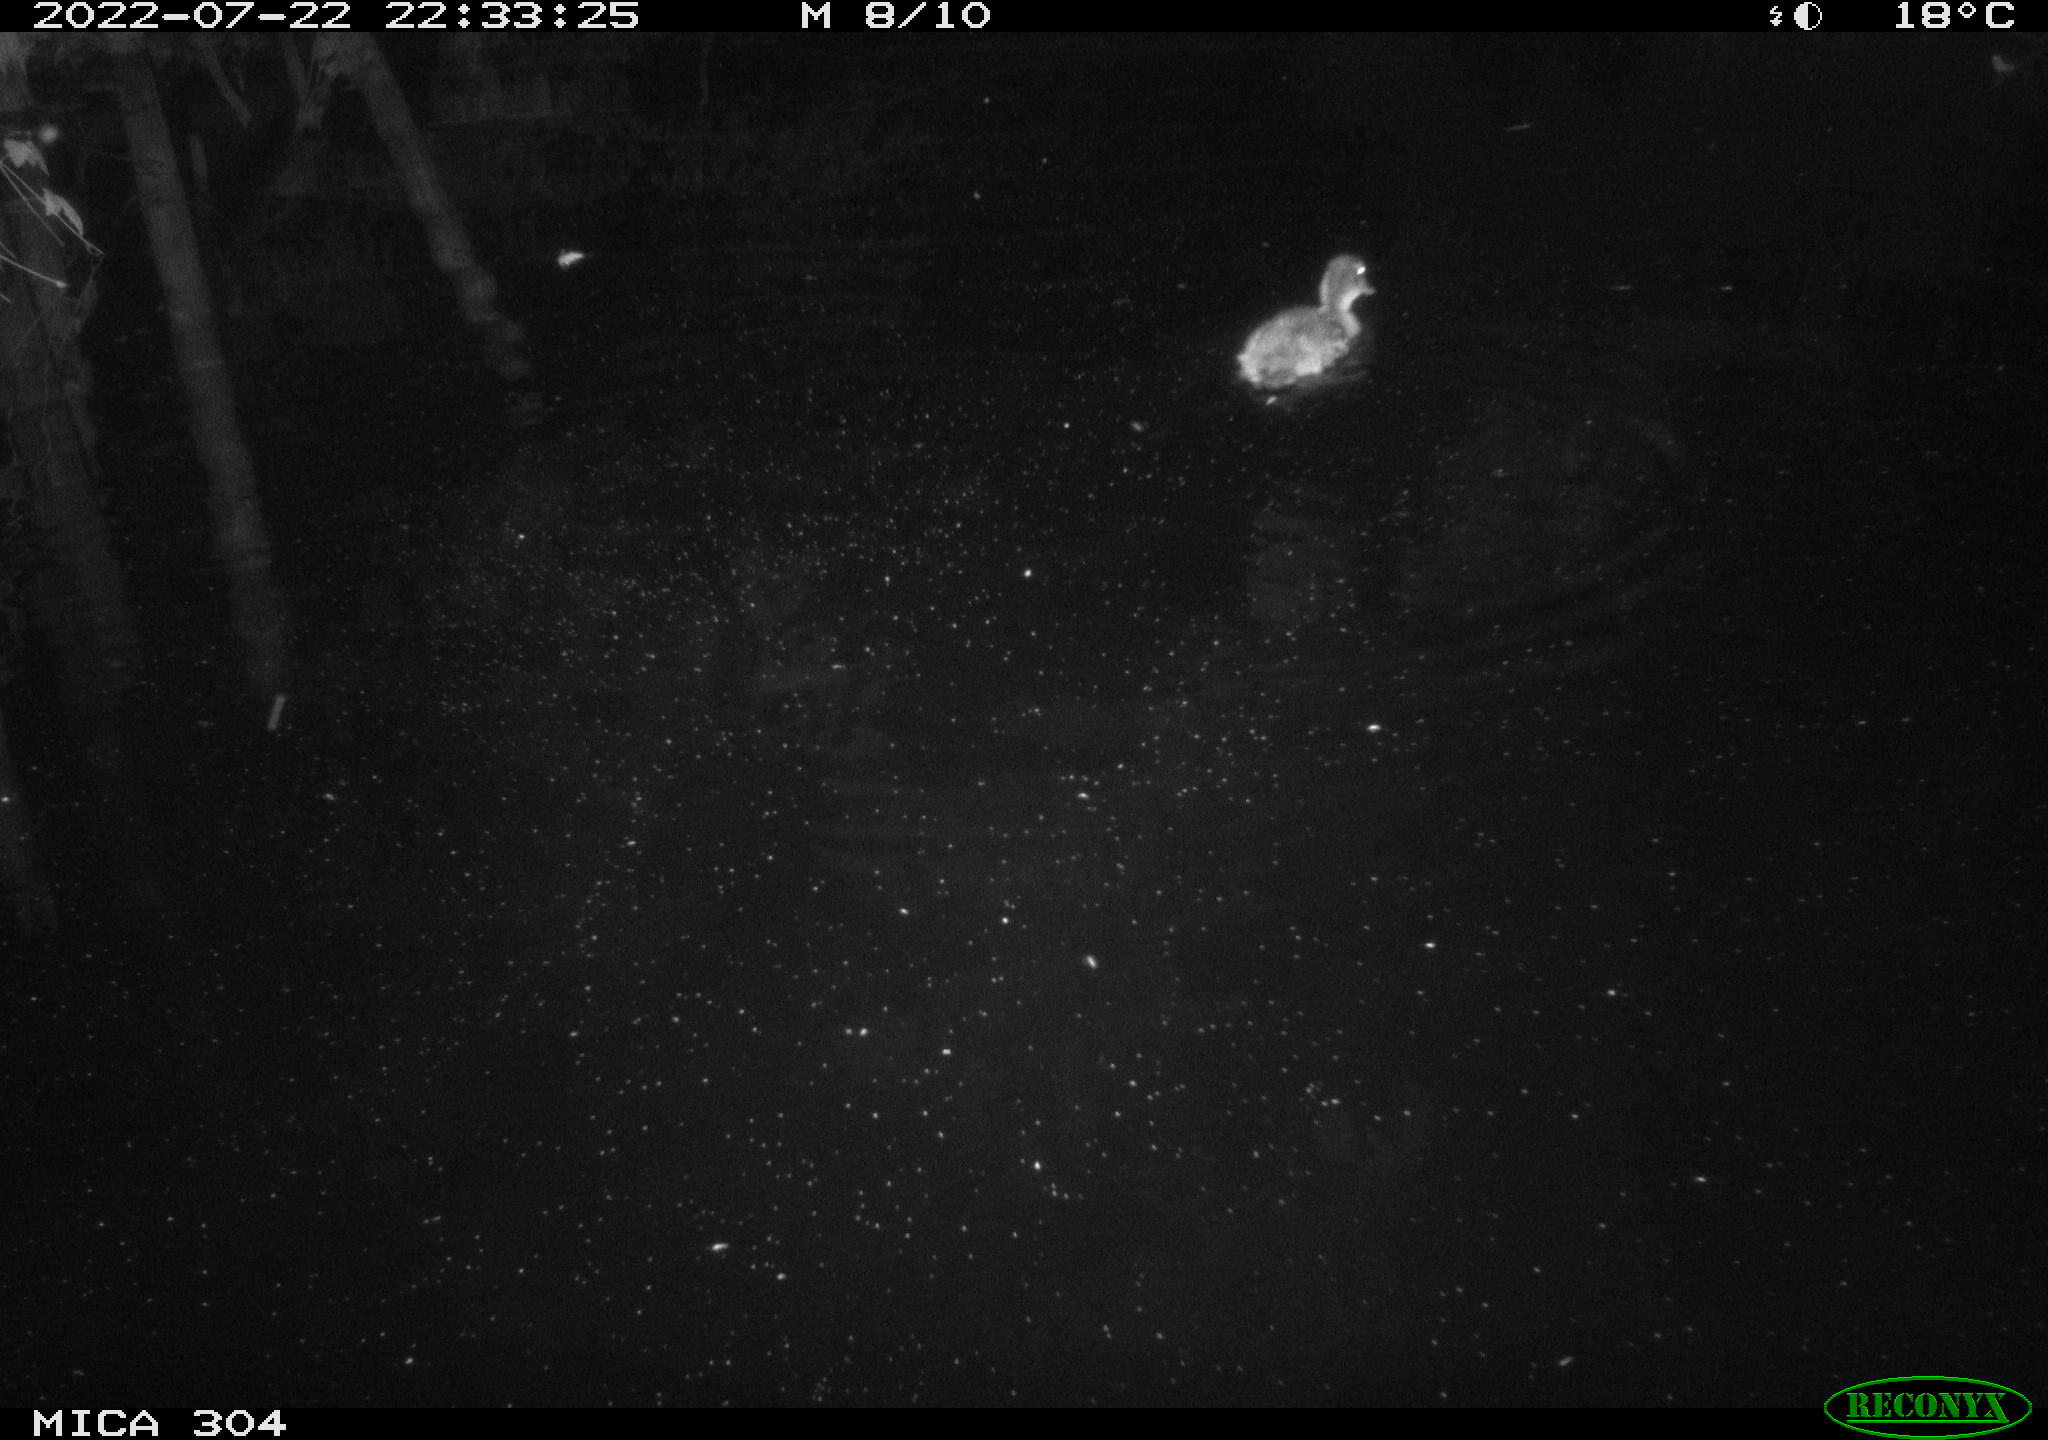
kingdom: Animalia
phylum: Chordata
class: Aves
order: Anseriformes
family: Anatidae
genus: Anas
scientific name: Anas platyrhynchos
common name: Mallard
